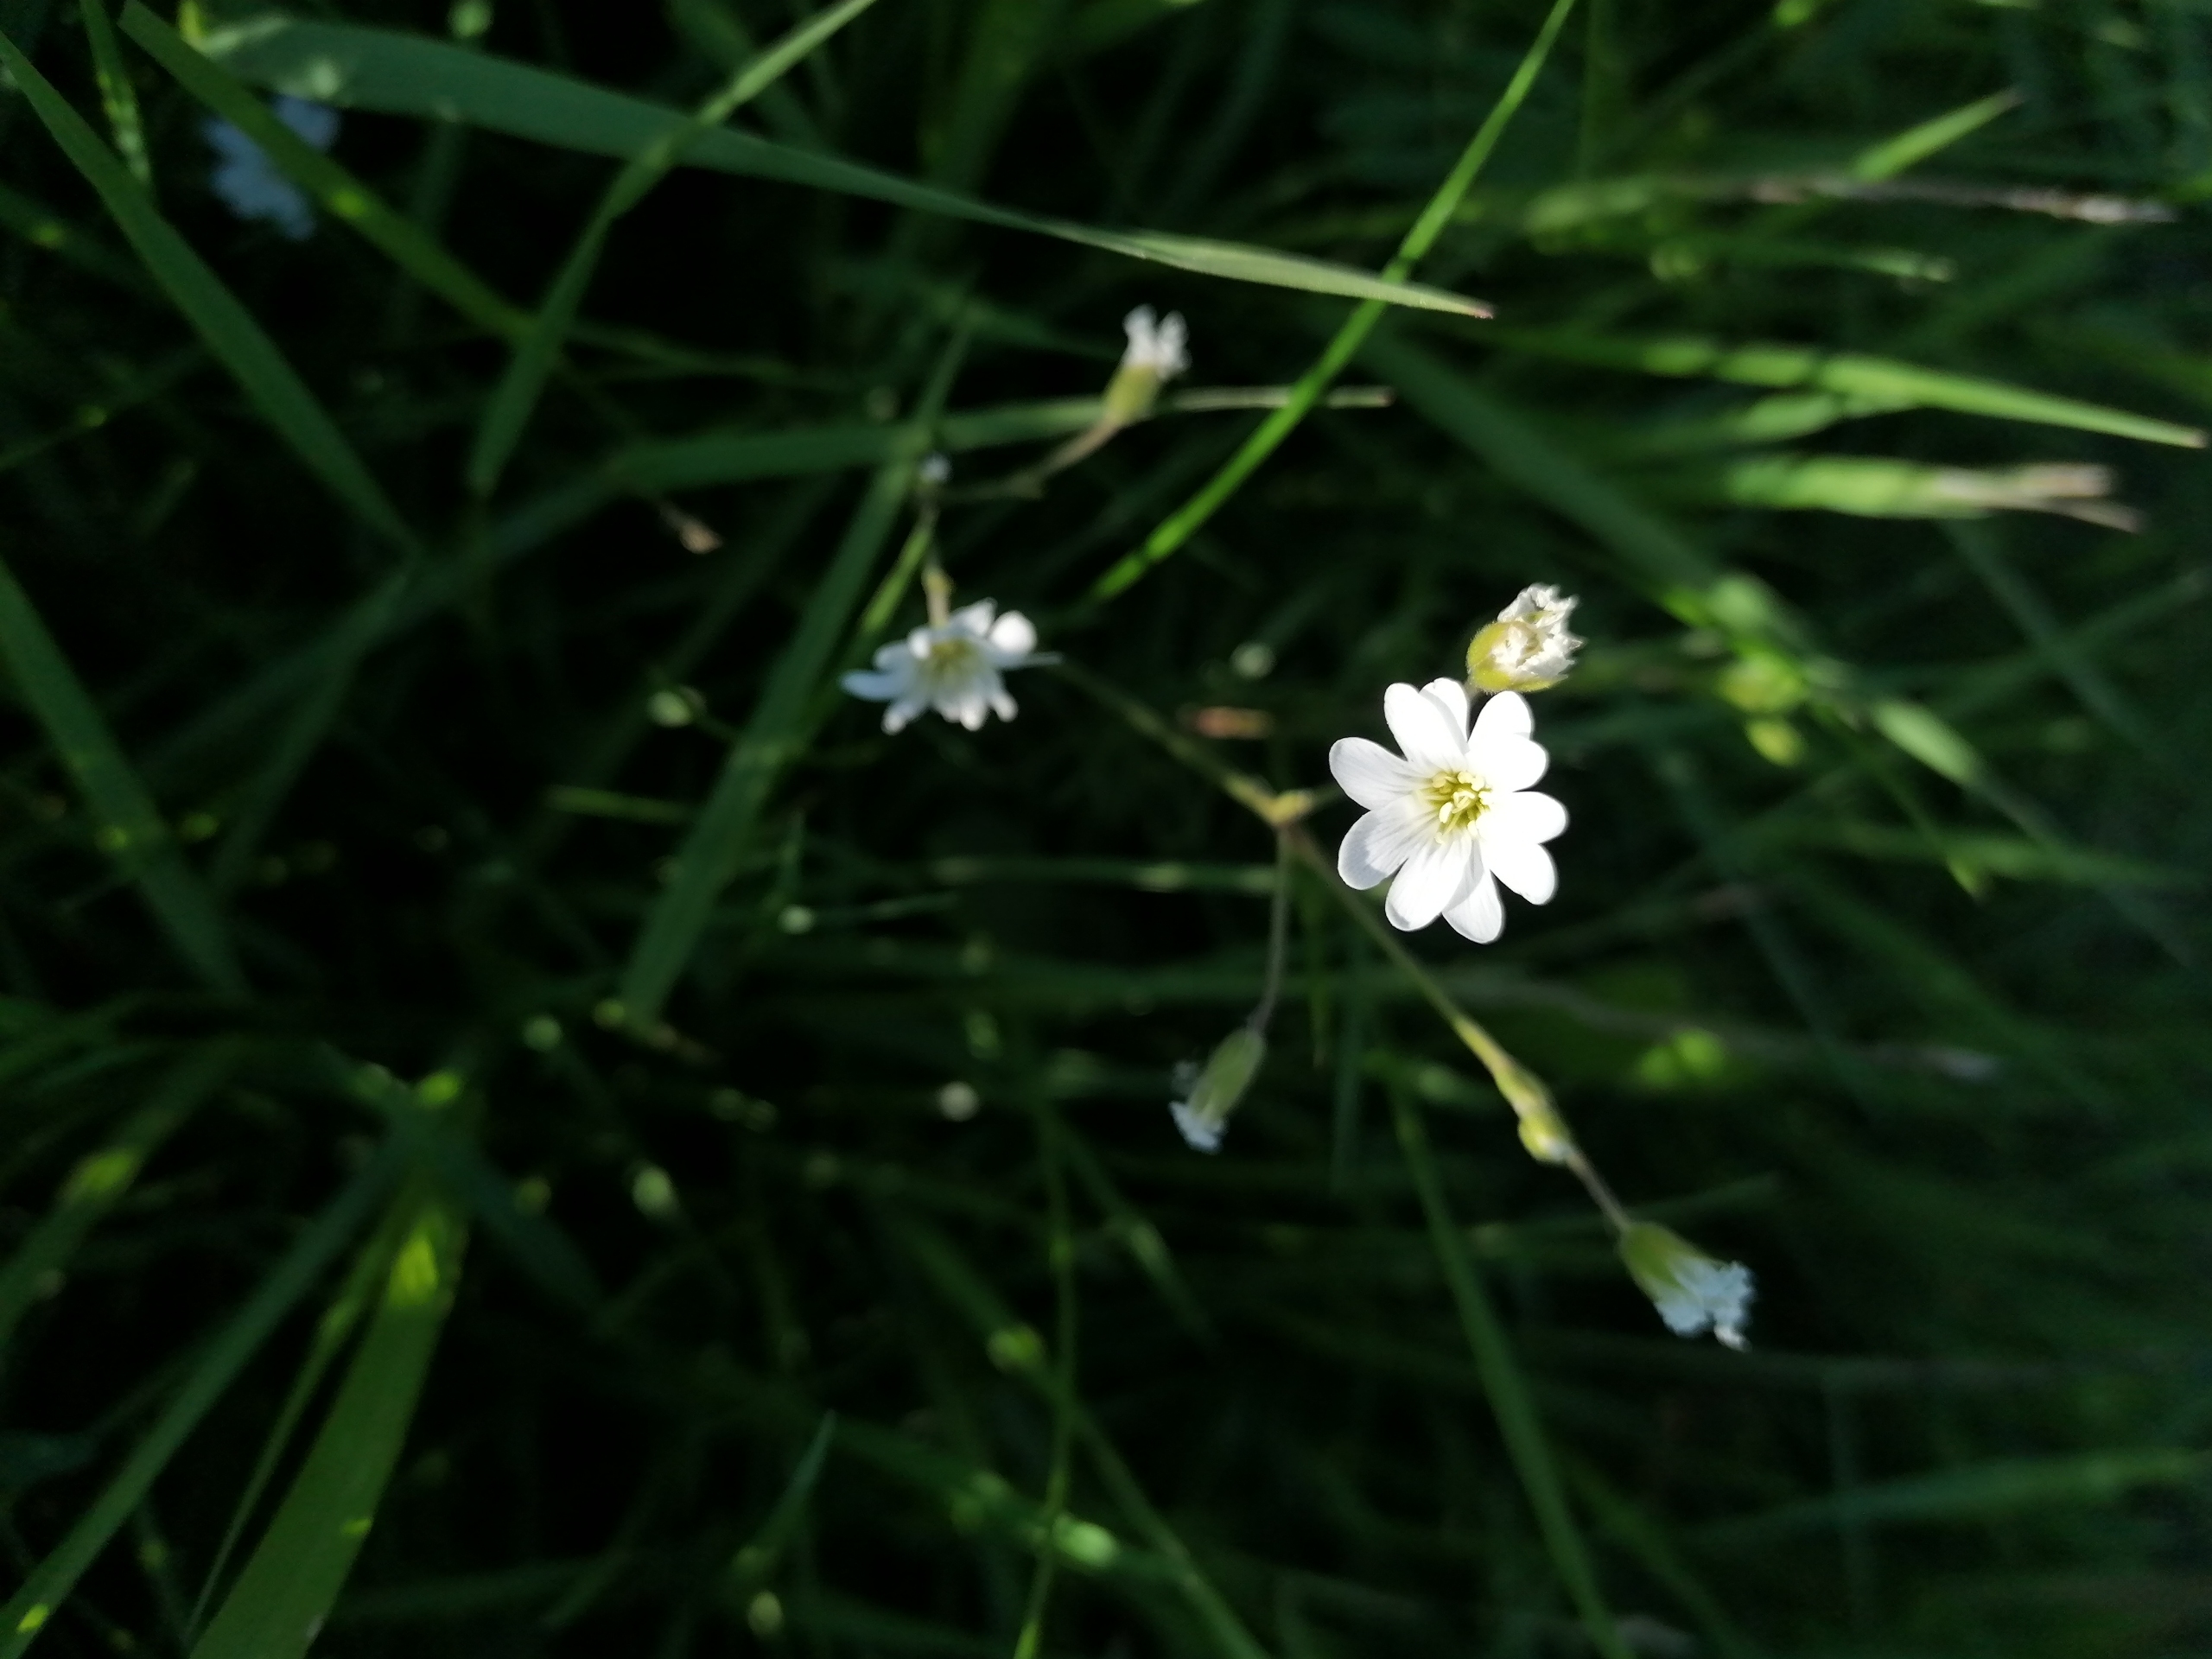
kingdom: Plantae
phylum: Tracheophyta
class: Magnoliopsida
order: Caryophyllales
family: Caryophyllaceae
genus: Rabelera
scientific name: Rabelera holostea
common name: Stor fladstjerne
